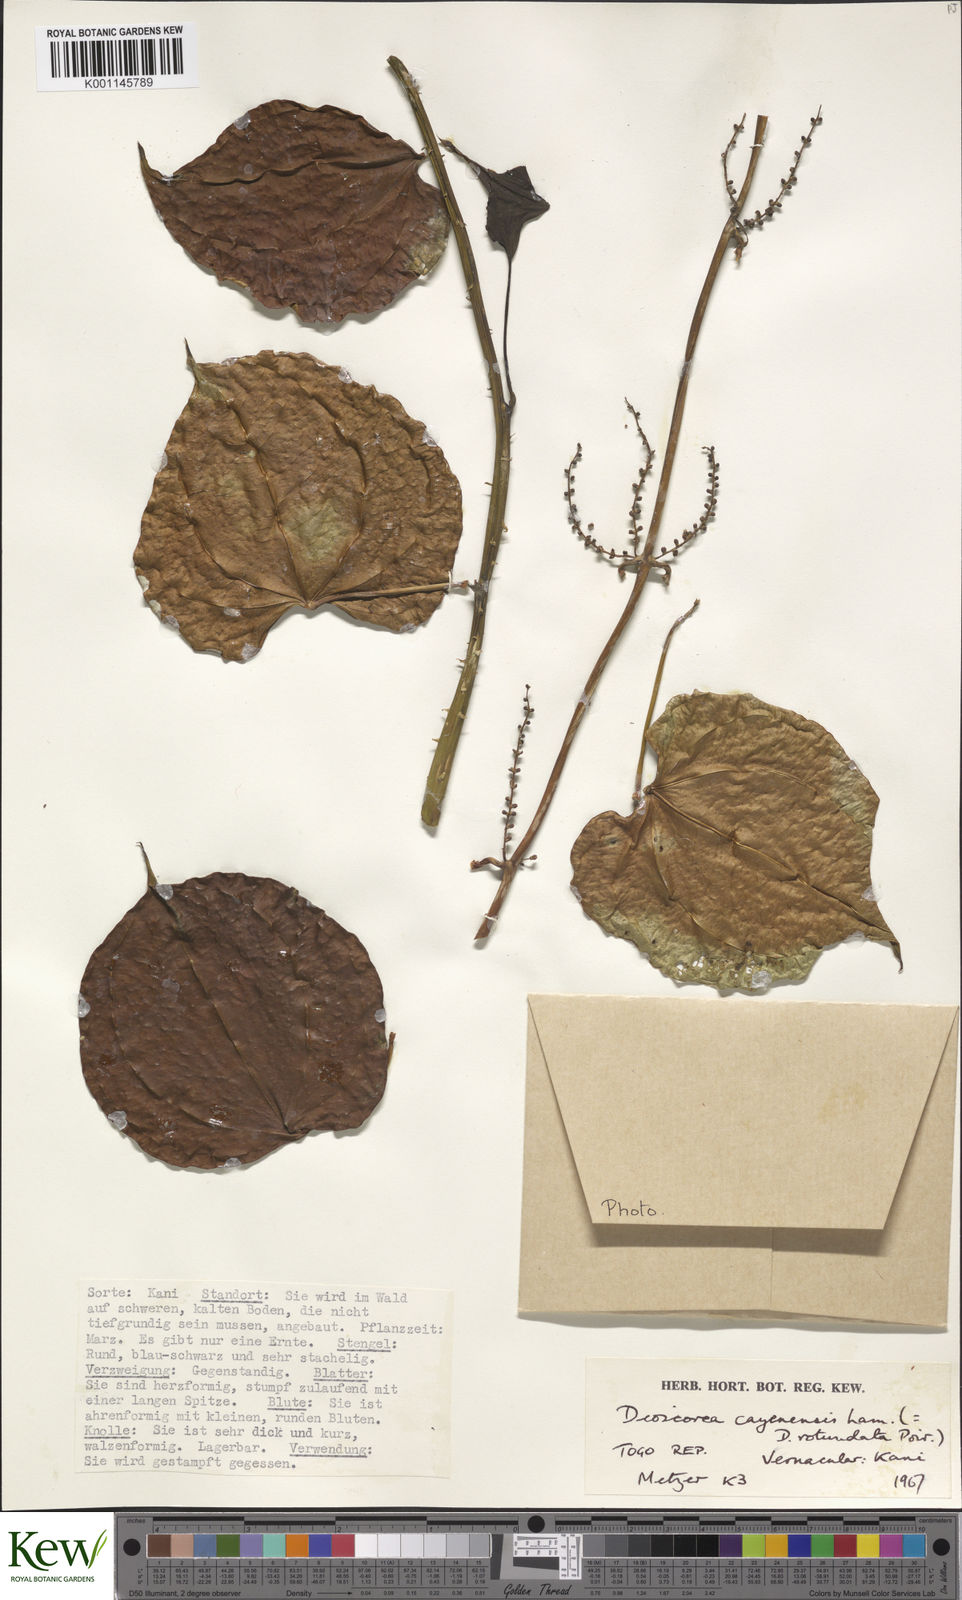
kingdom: Plantae
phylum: Tracheophyta
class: Liliopsida
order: Dioscoreales
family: Dioscoreaceae
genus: Dioscorea
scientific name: Dioscorea cayenensis
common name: Attoto yam
